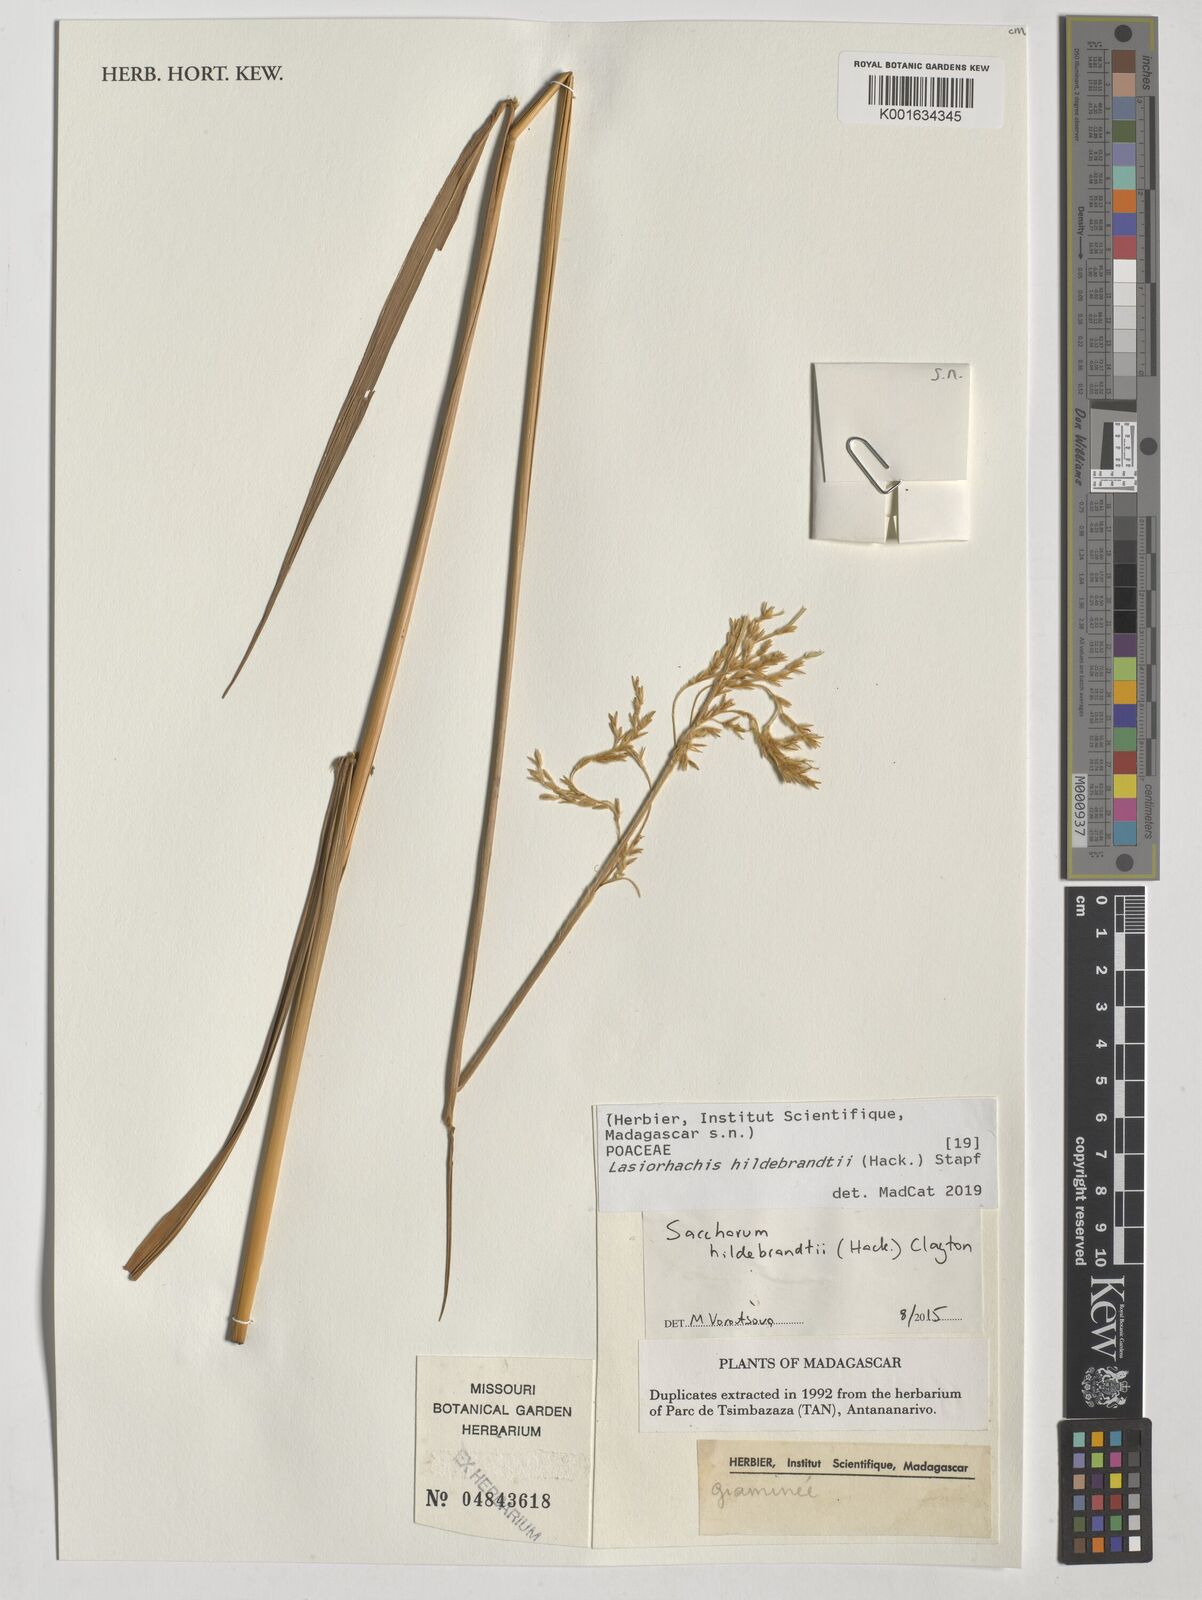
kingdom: Plantae
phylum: Tracheophyta
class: Liliopsida
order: Poales
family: Poaceae
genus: Lasiorhachis
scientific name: Lasiorhachis hildebrandtii
